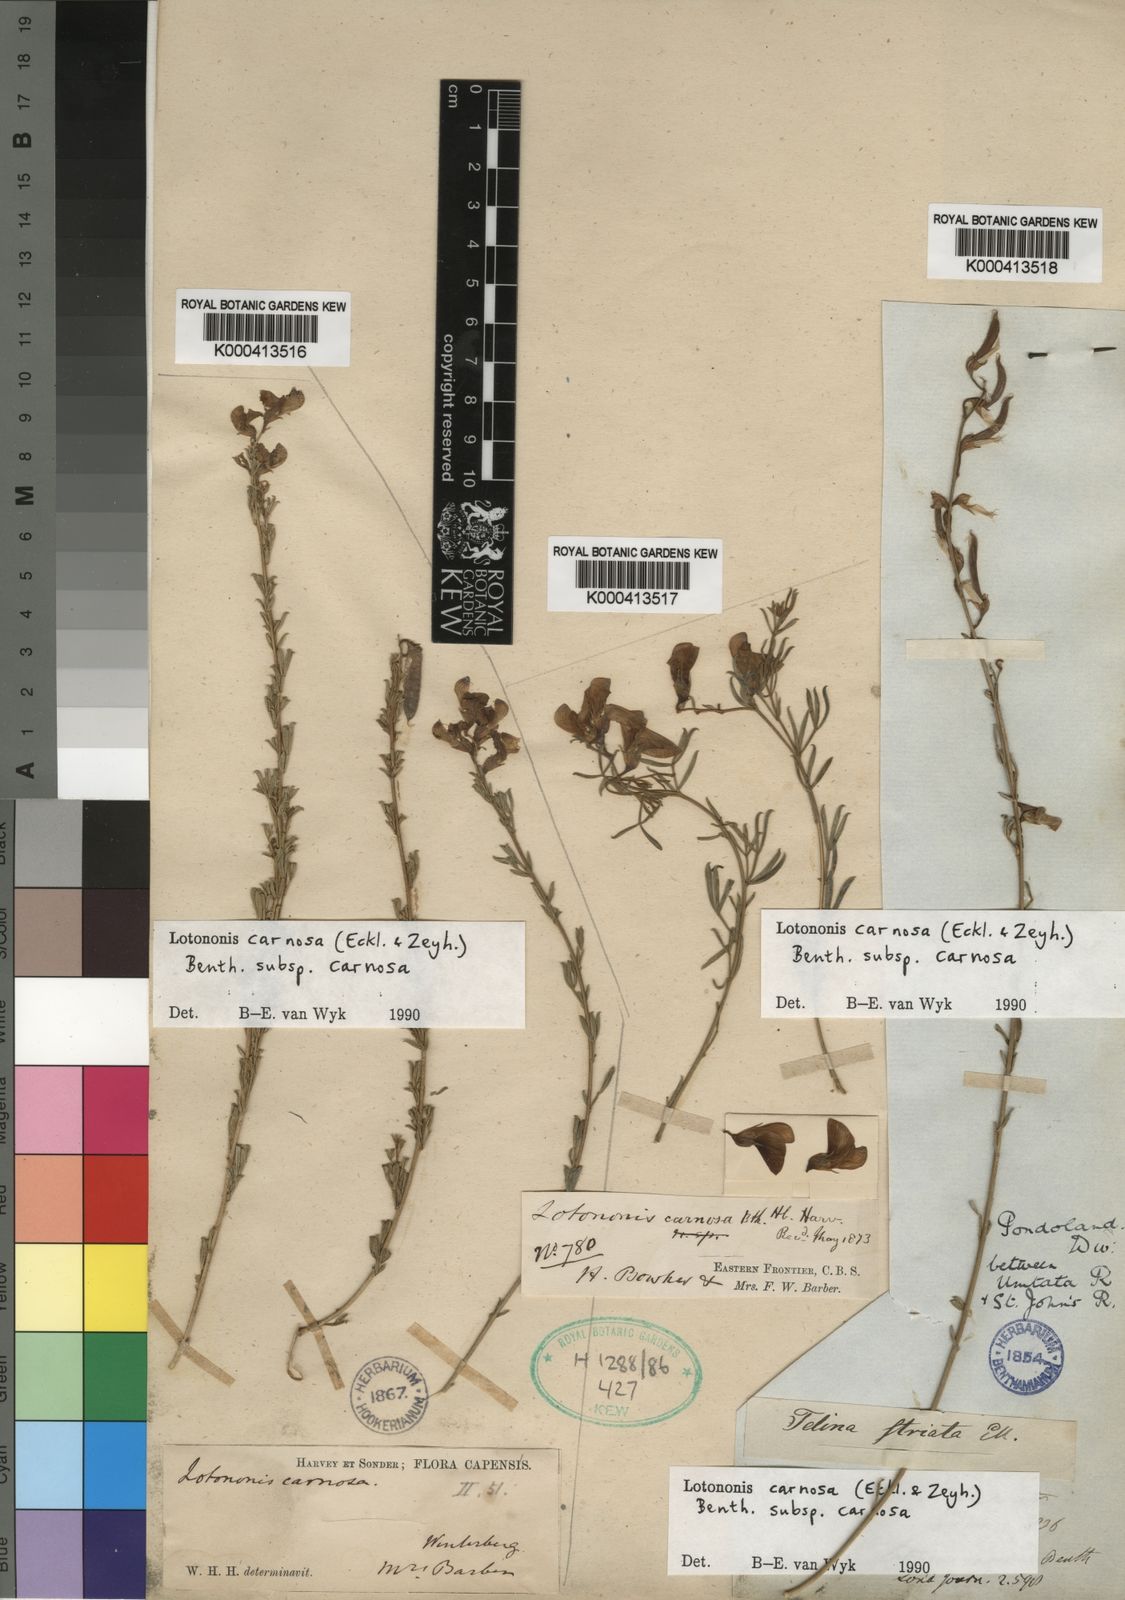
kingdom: Plantae
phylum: Tracheophyta
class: Magnoliopsida
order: Fabales
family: Fabaceae
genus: Lotononis
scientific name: Lotononis carnosa
